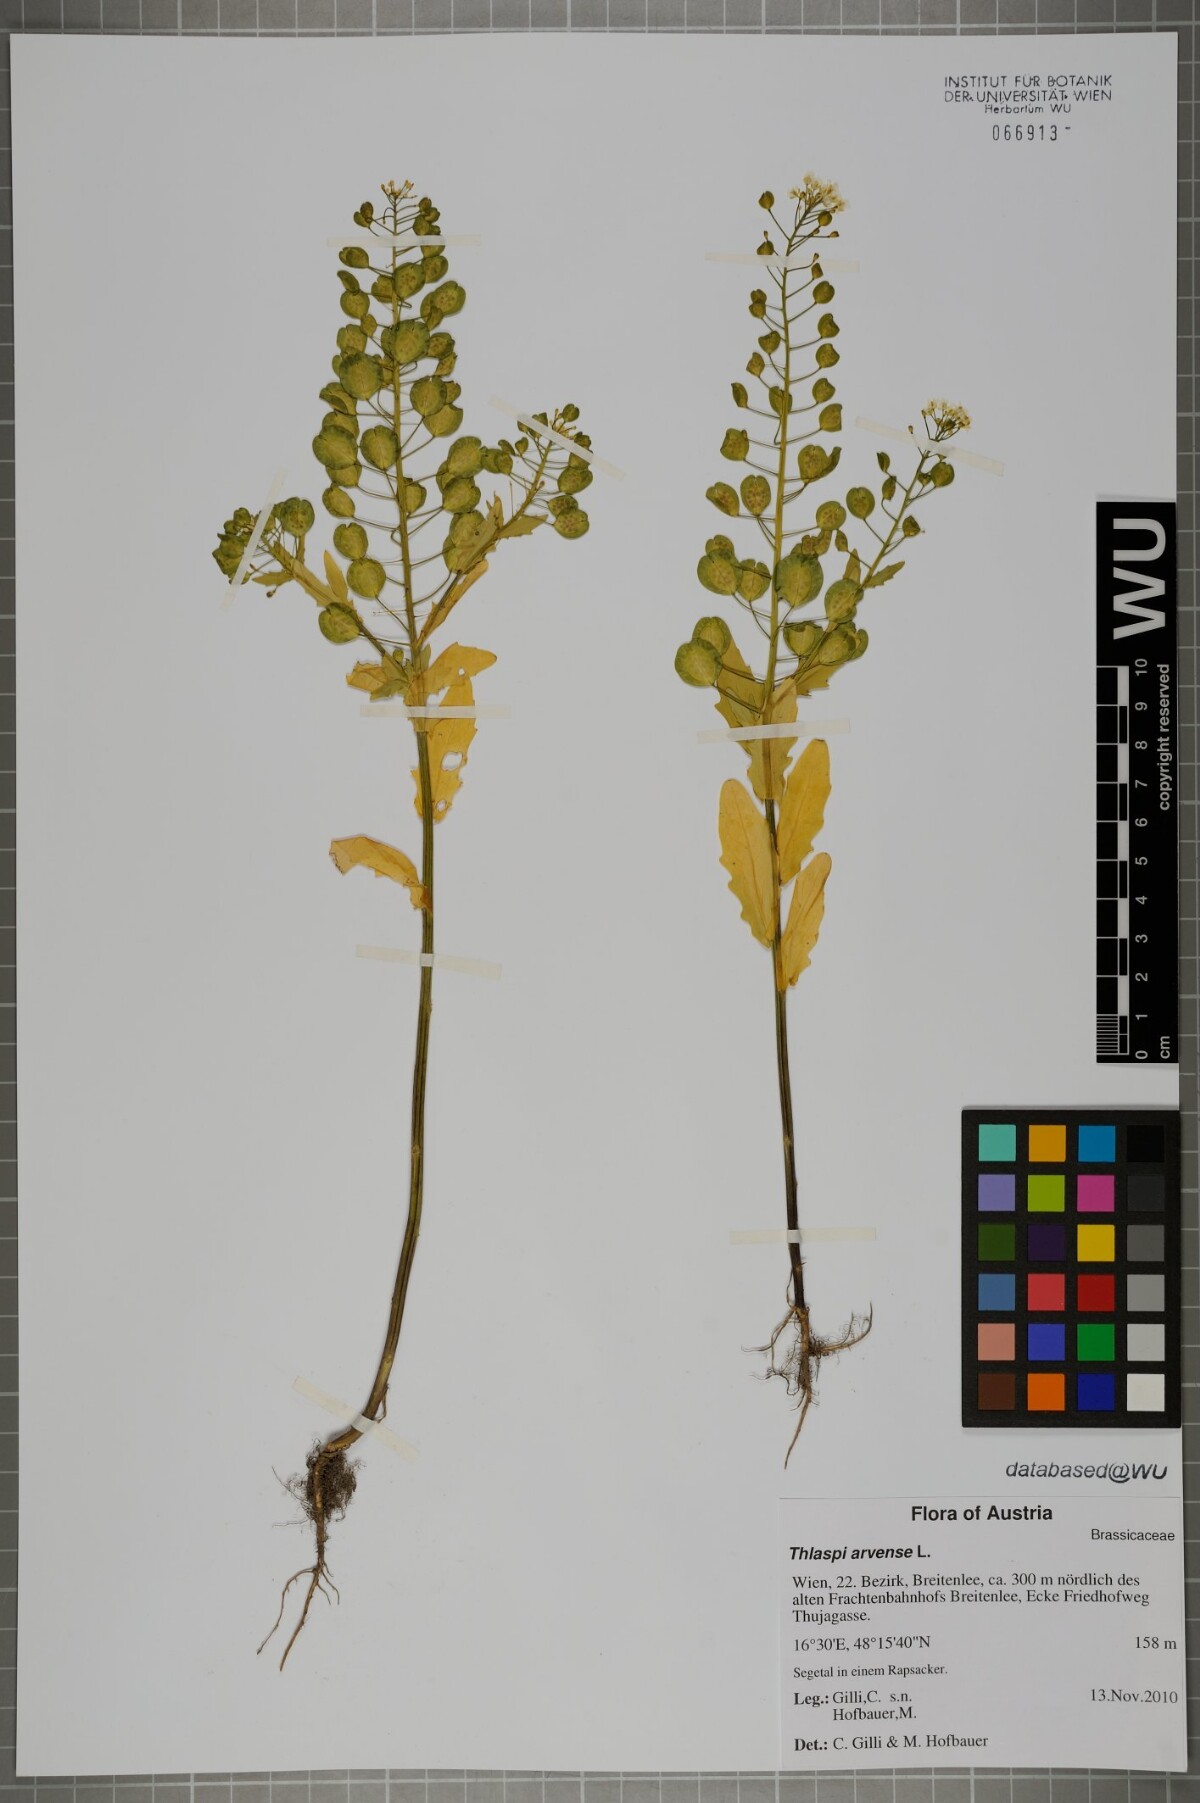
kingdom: Plantae
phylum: Tracheophyta
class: Magnoliopsida
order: Brassicales
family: Brassicaceae
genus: Thlaspi
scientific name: Thlaspi arvense
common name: Field pennycress
